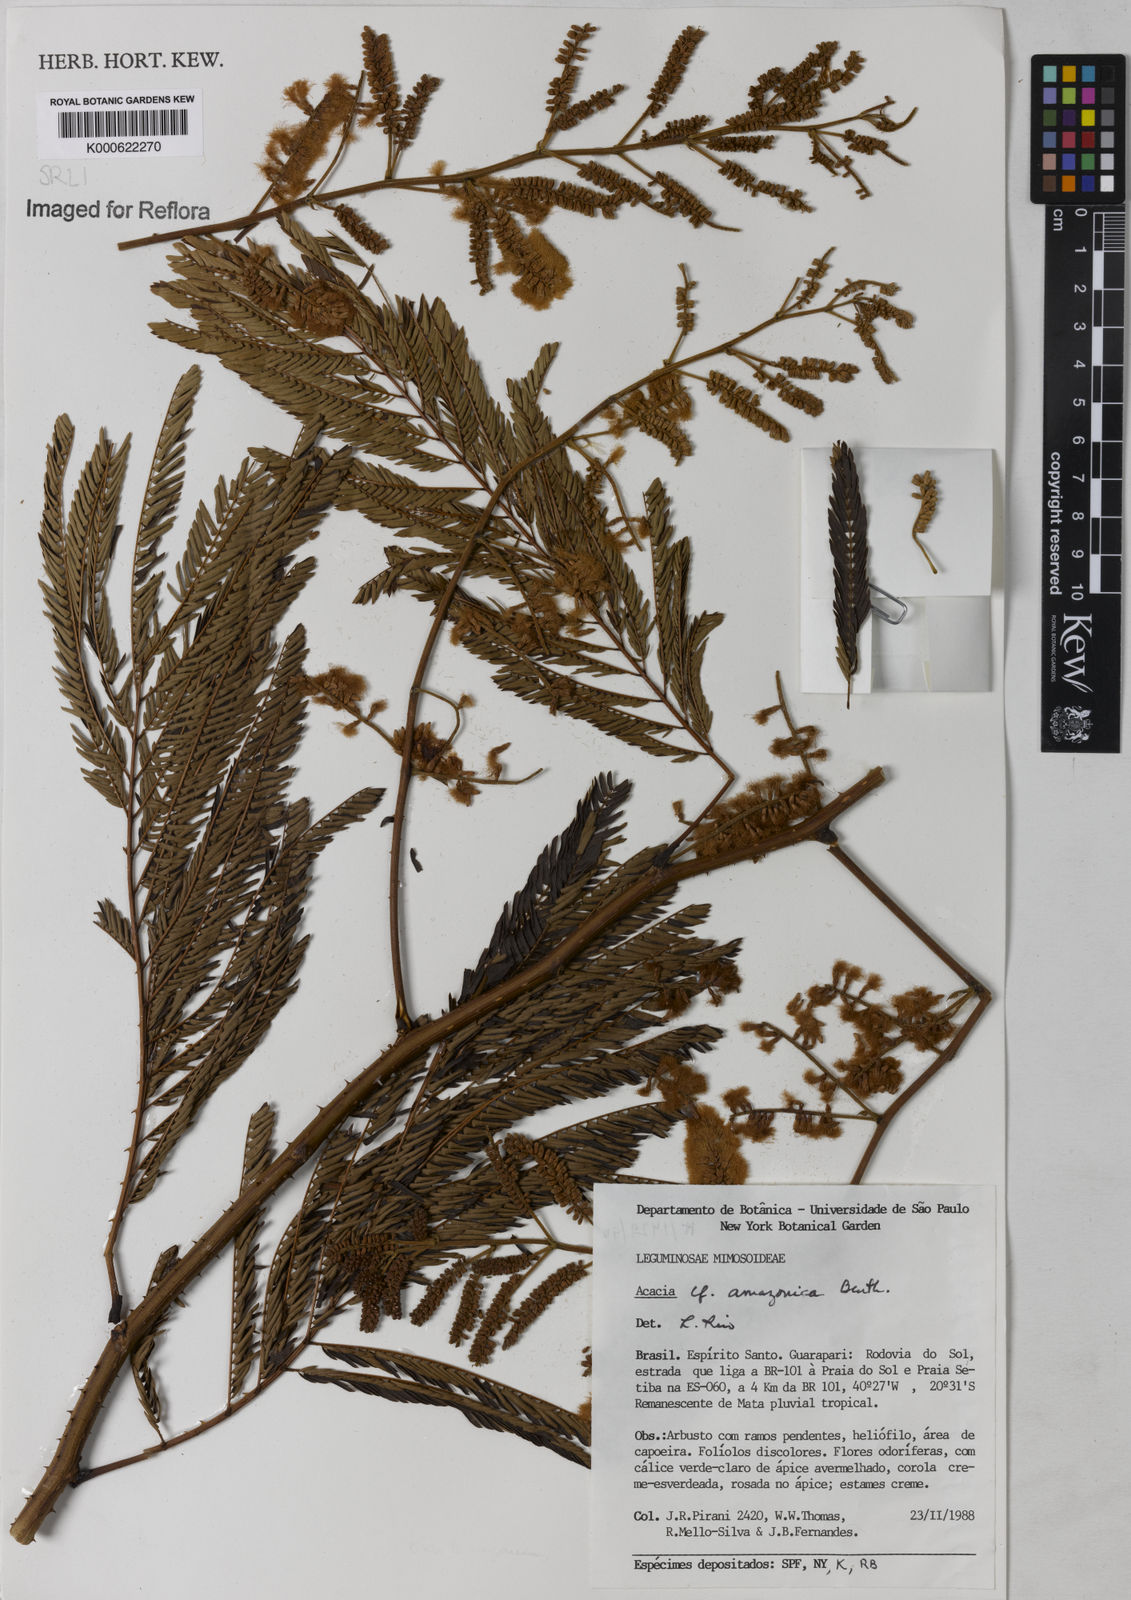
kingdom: Plantae
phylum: Tracheophyta
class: Magnoliopsida
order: Fabales
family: Fabaceae
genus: Senegalia
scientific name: Senegalia amazonica
